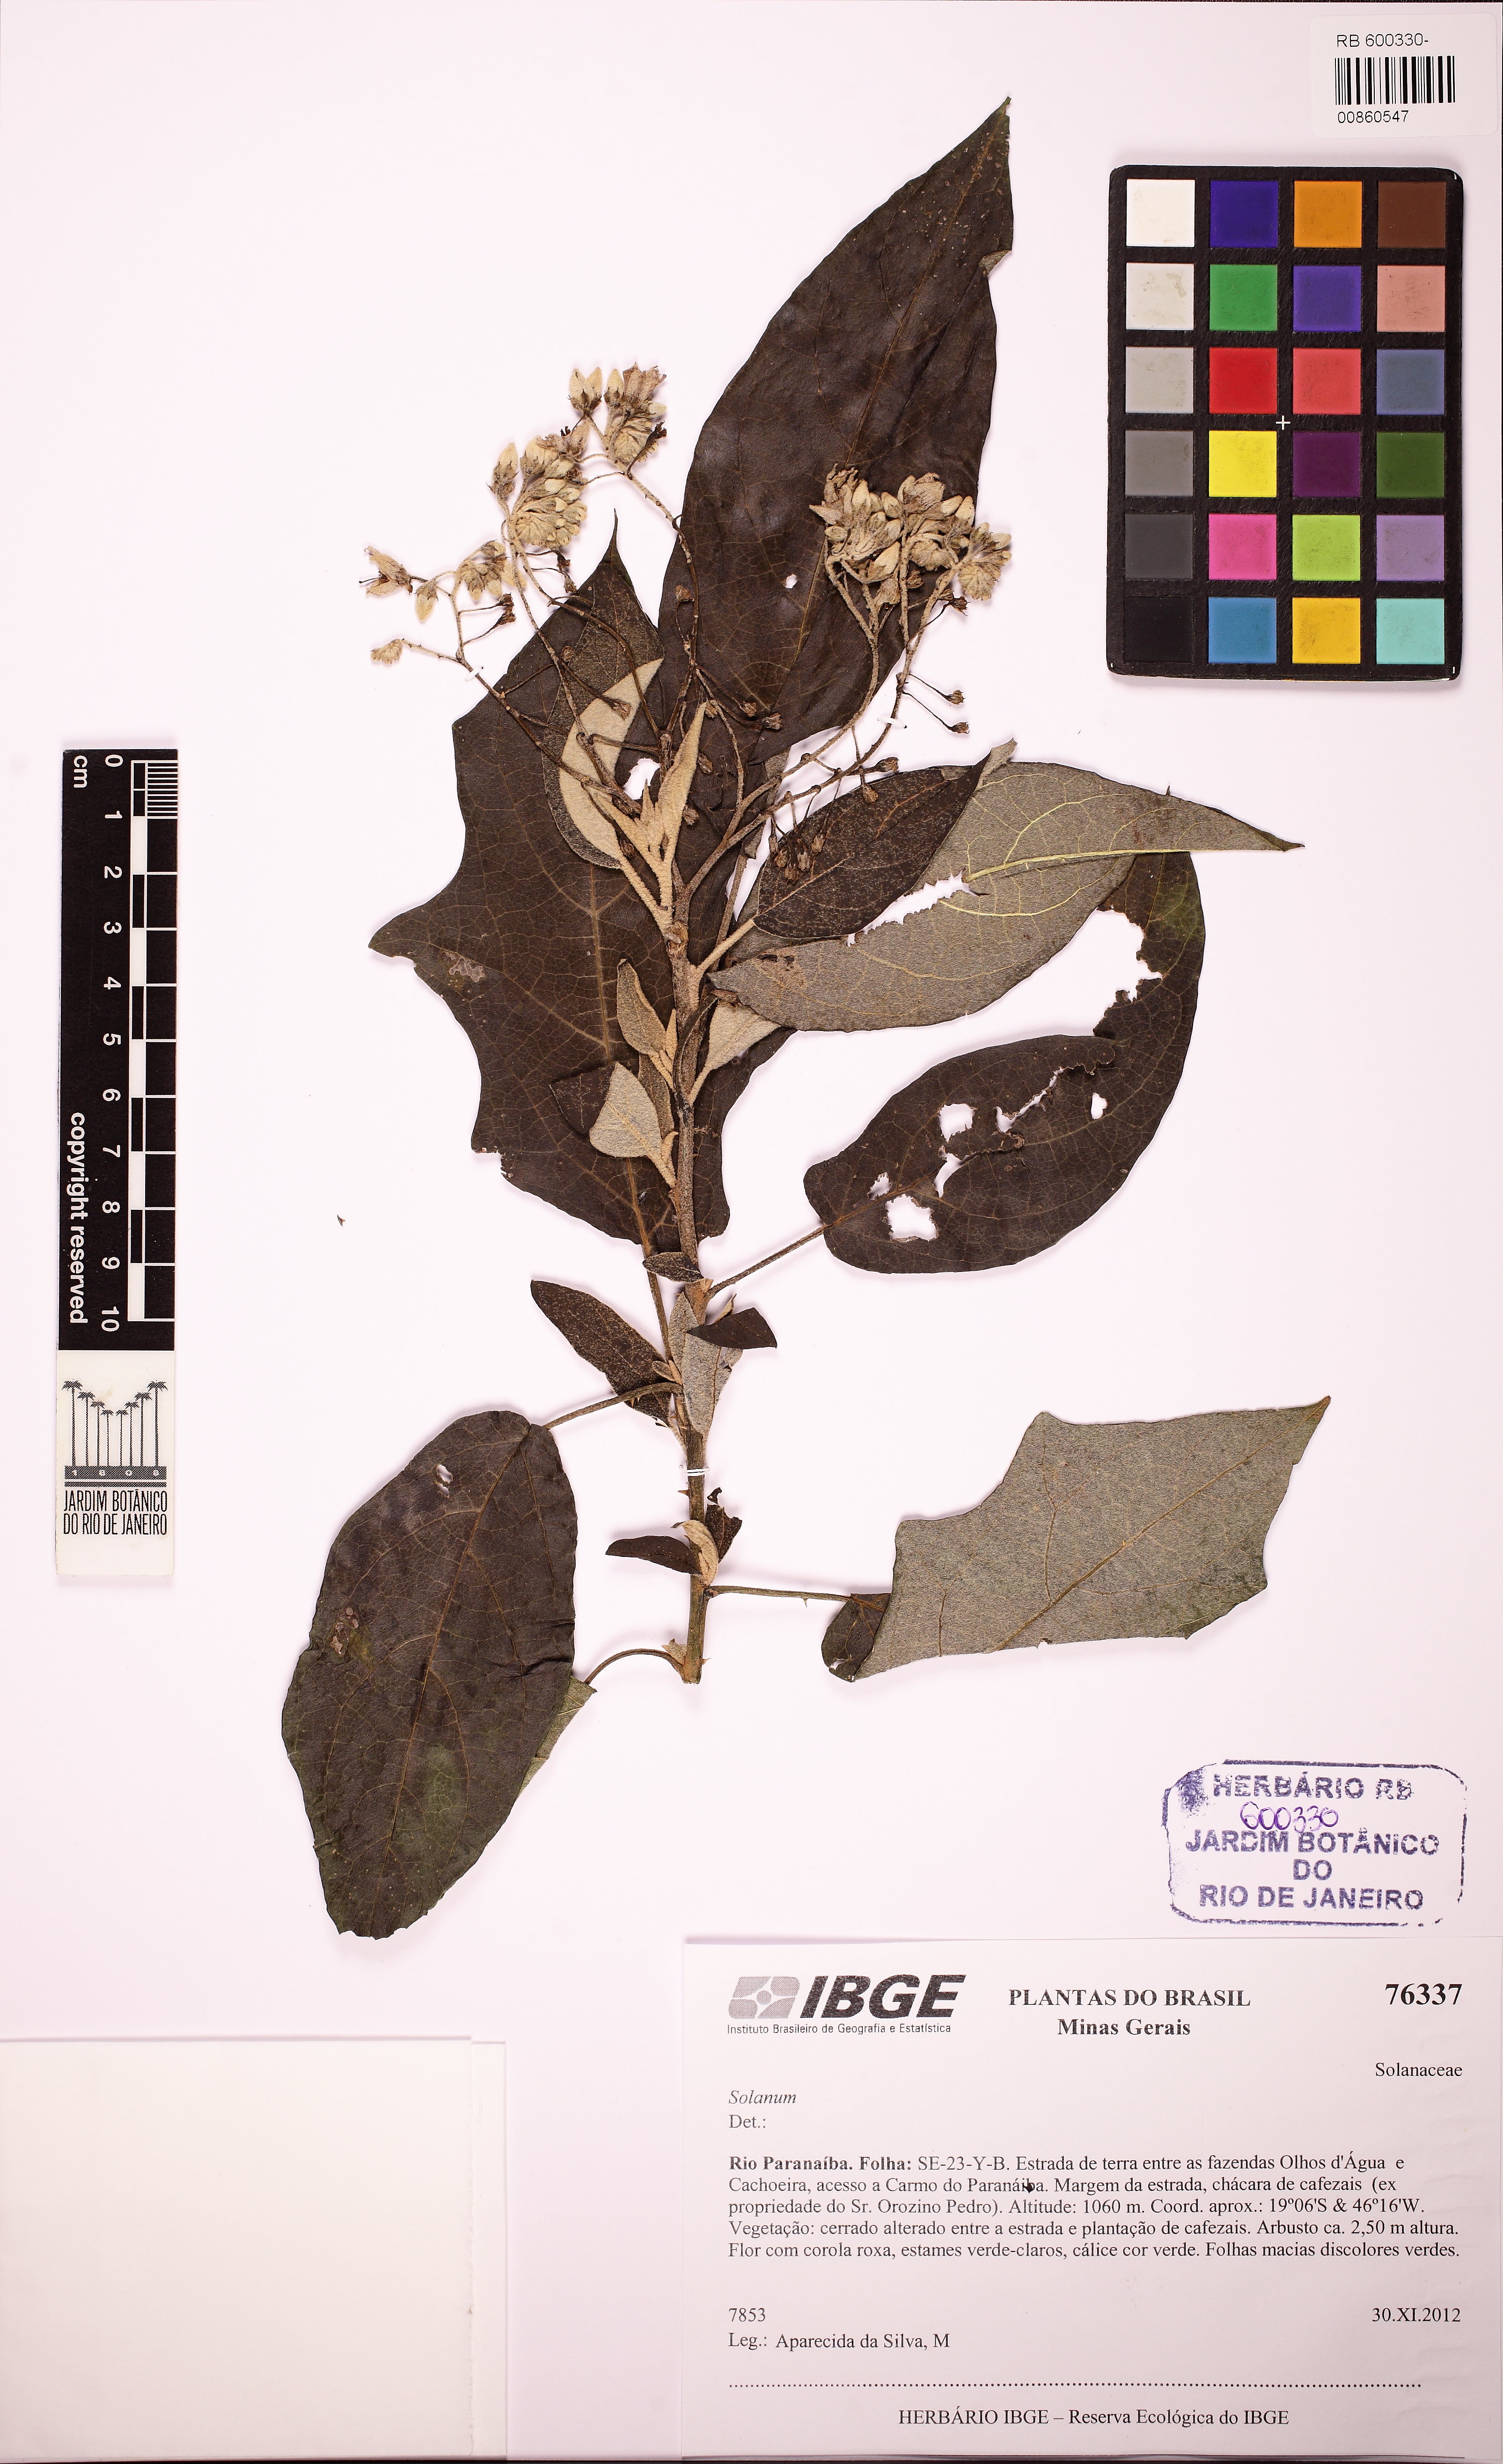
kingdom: Plantae
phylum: Tracheophyta
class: Magnoliopsida
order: Solanales
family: Solanaceae
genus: Solanum
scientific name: Solanum paniculatum
